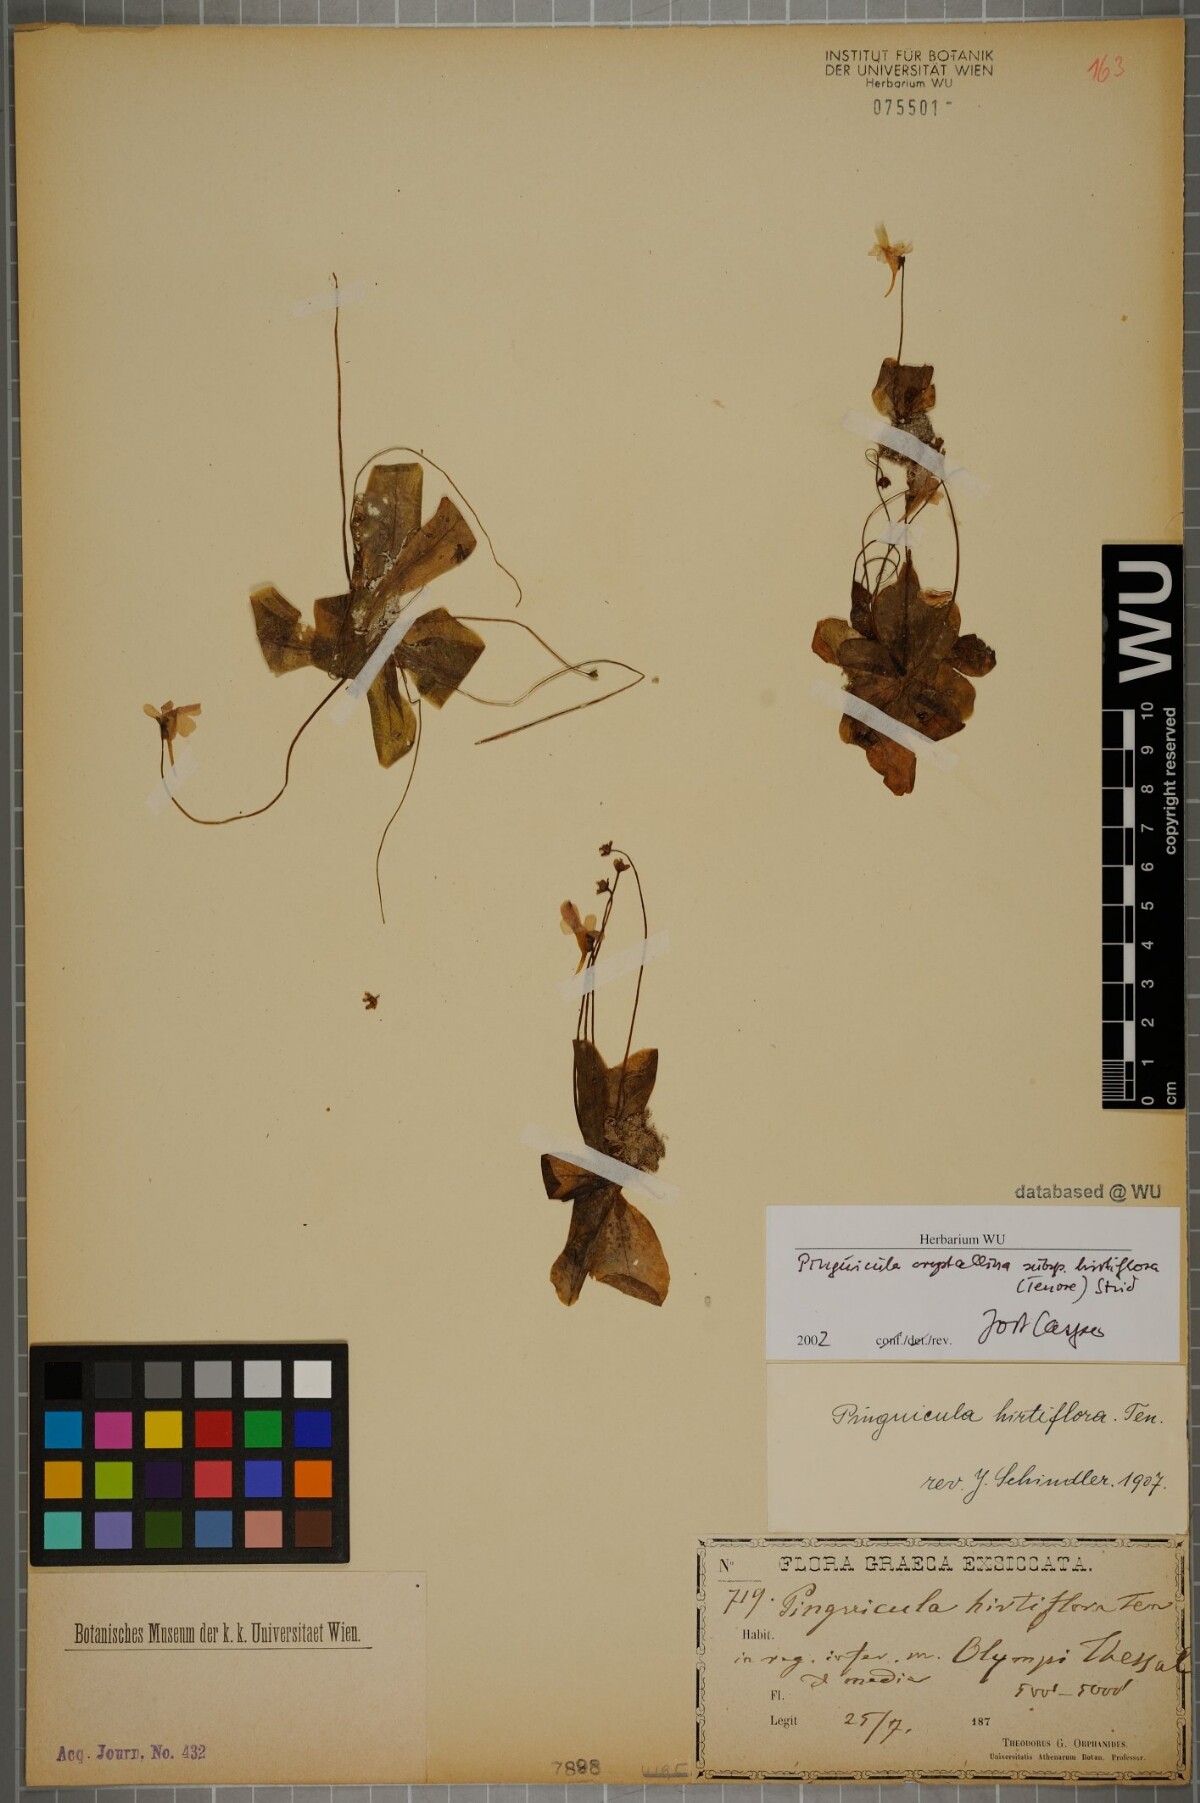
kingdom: Plantae
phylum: Tracheophyta
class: Magnoliopsida
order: Lamiales
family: Lentibulariaceae
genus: Pinguicula
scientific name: Pinguicula crystallina
